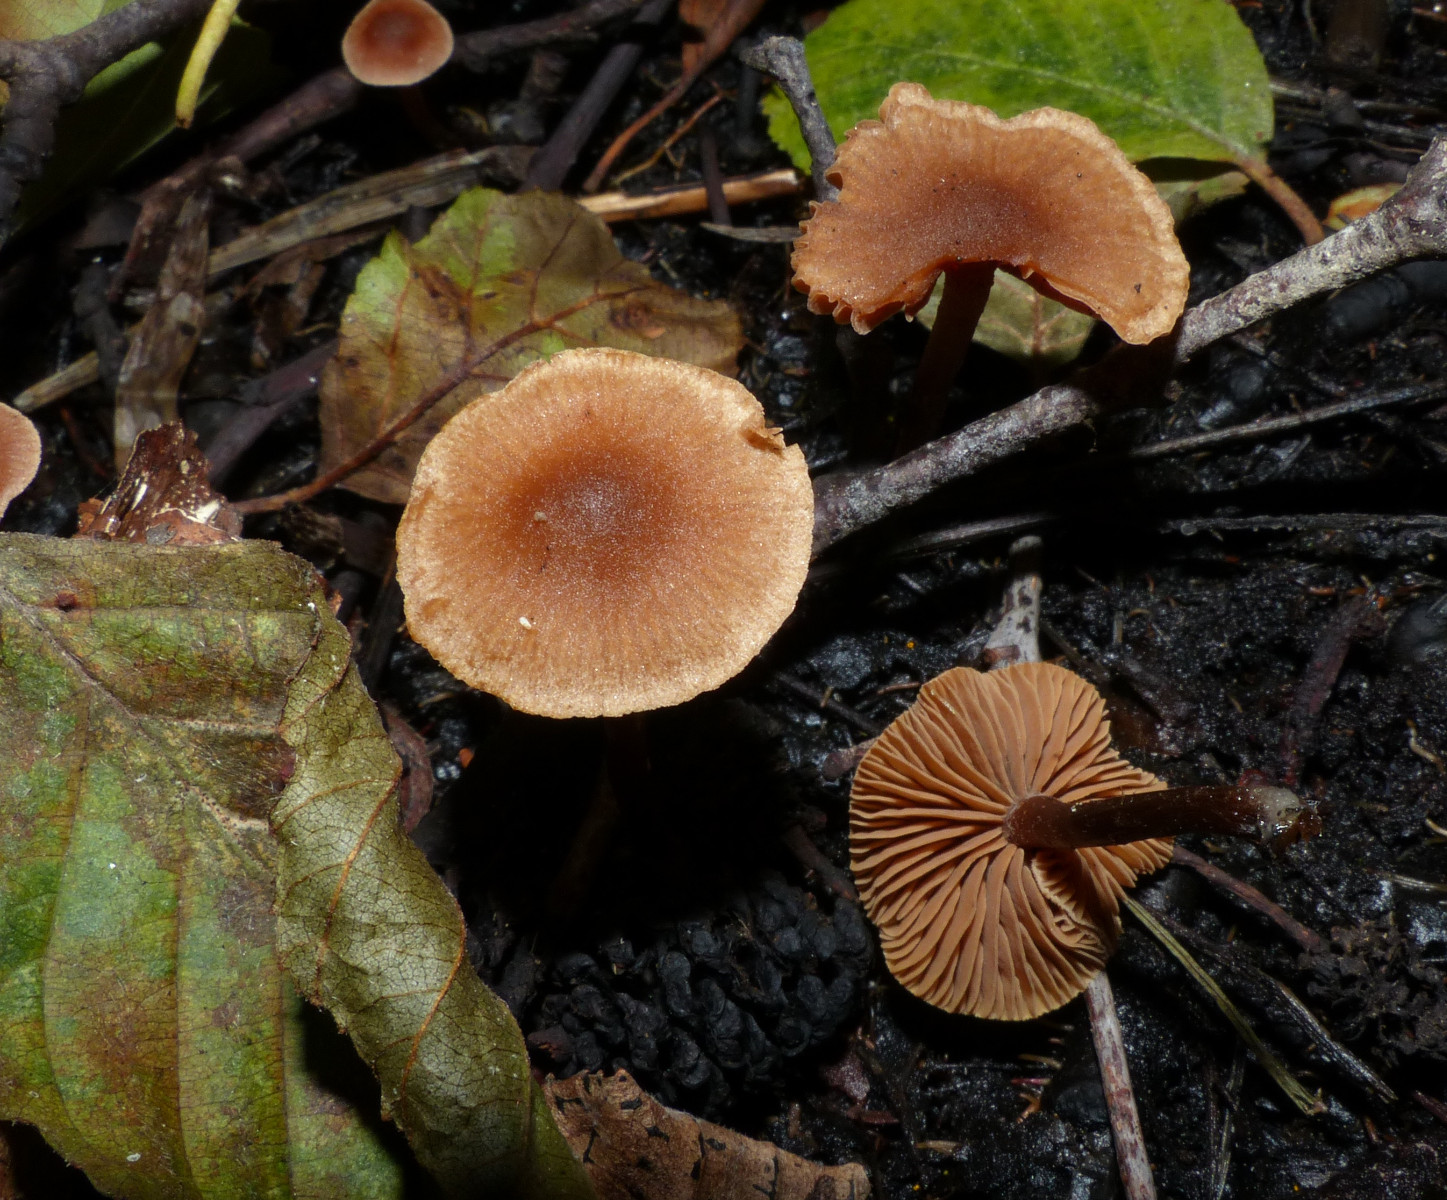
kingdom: Fungi
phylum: Basidiomycota
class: Agaricomycetes
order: Agaricales
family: Hymenogastraceae
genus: Naucoria
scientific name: Naucoria scolecina
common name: mørk elle-knaphat
